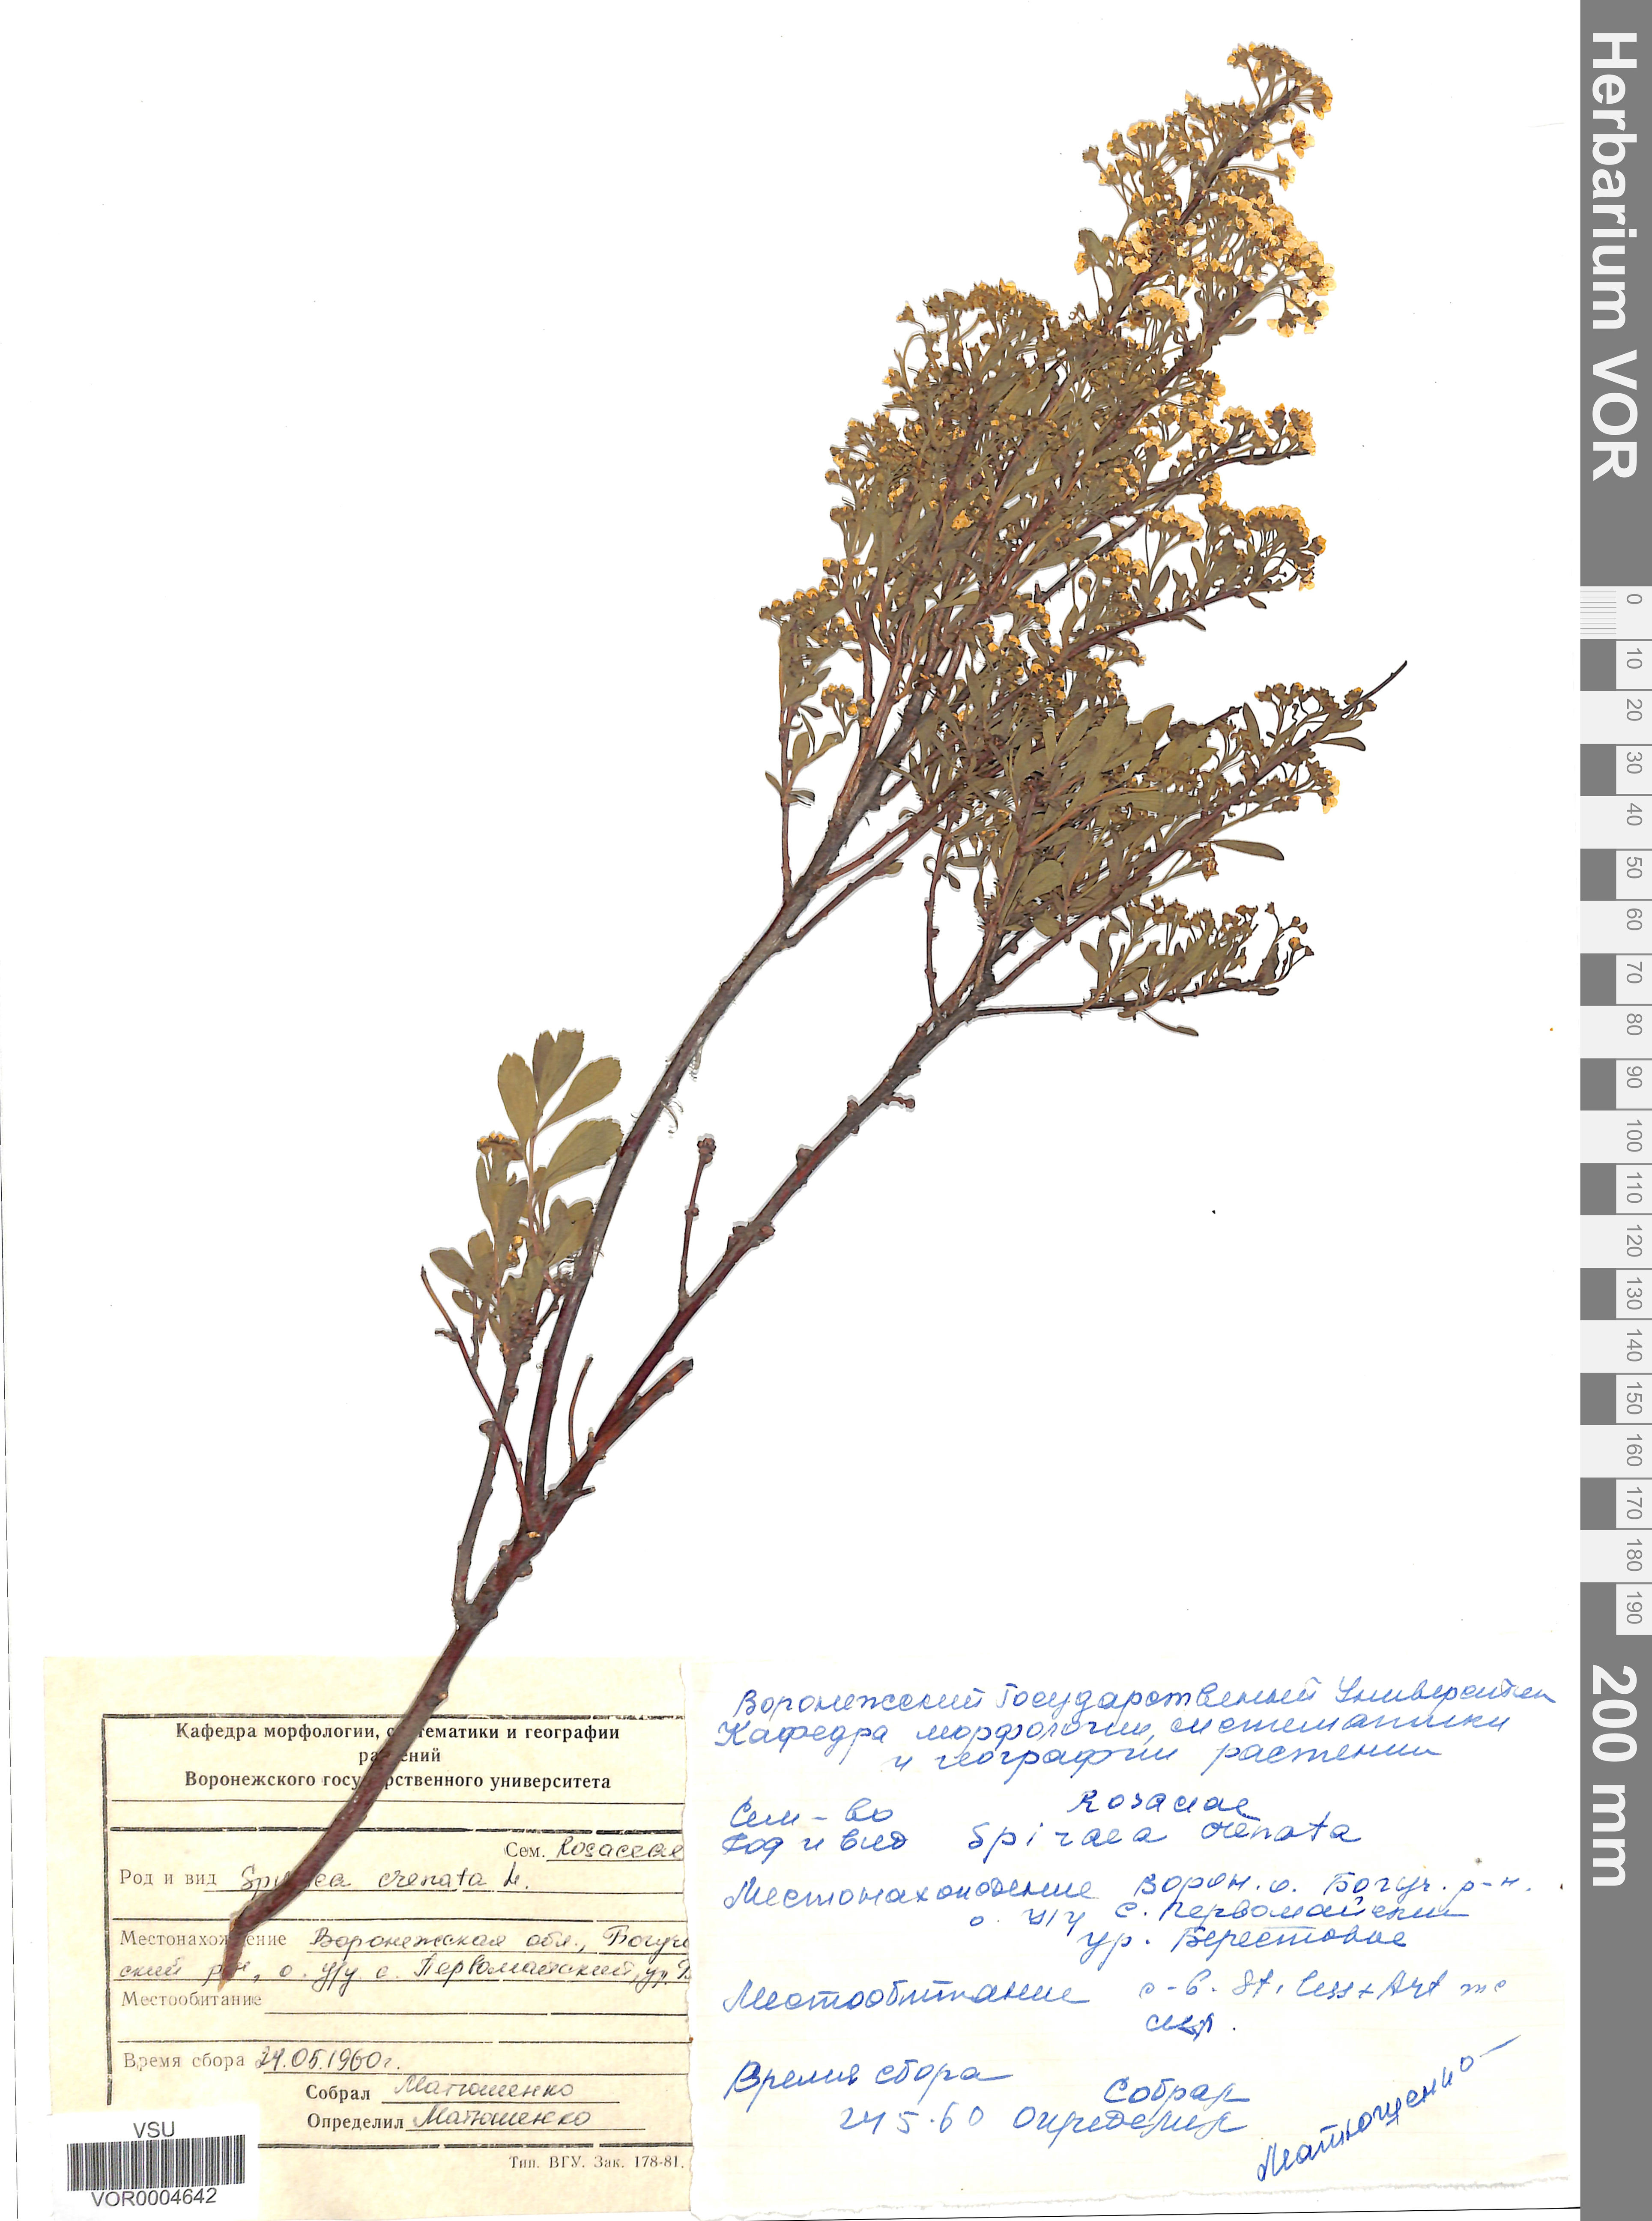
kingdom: Plantae
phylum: Tracheophyta
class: Magnoliopsida
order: Rosales
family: Rosaceae
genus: Spiraea
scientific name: Spiraea crenata
